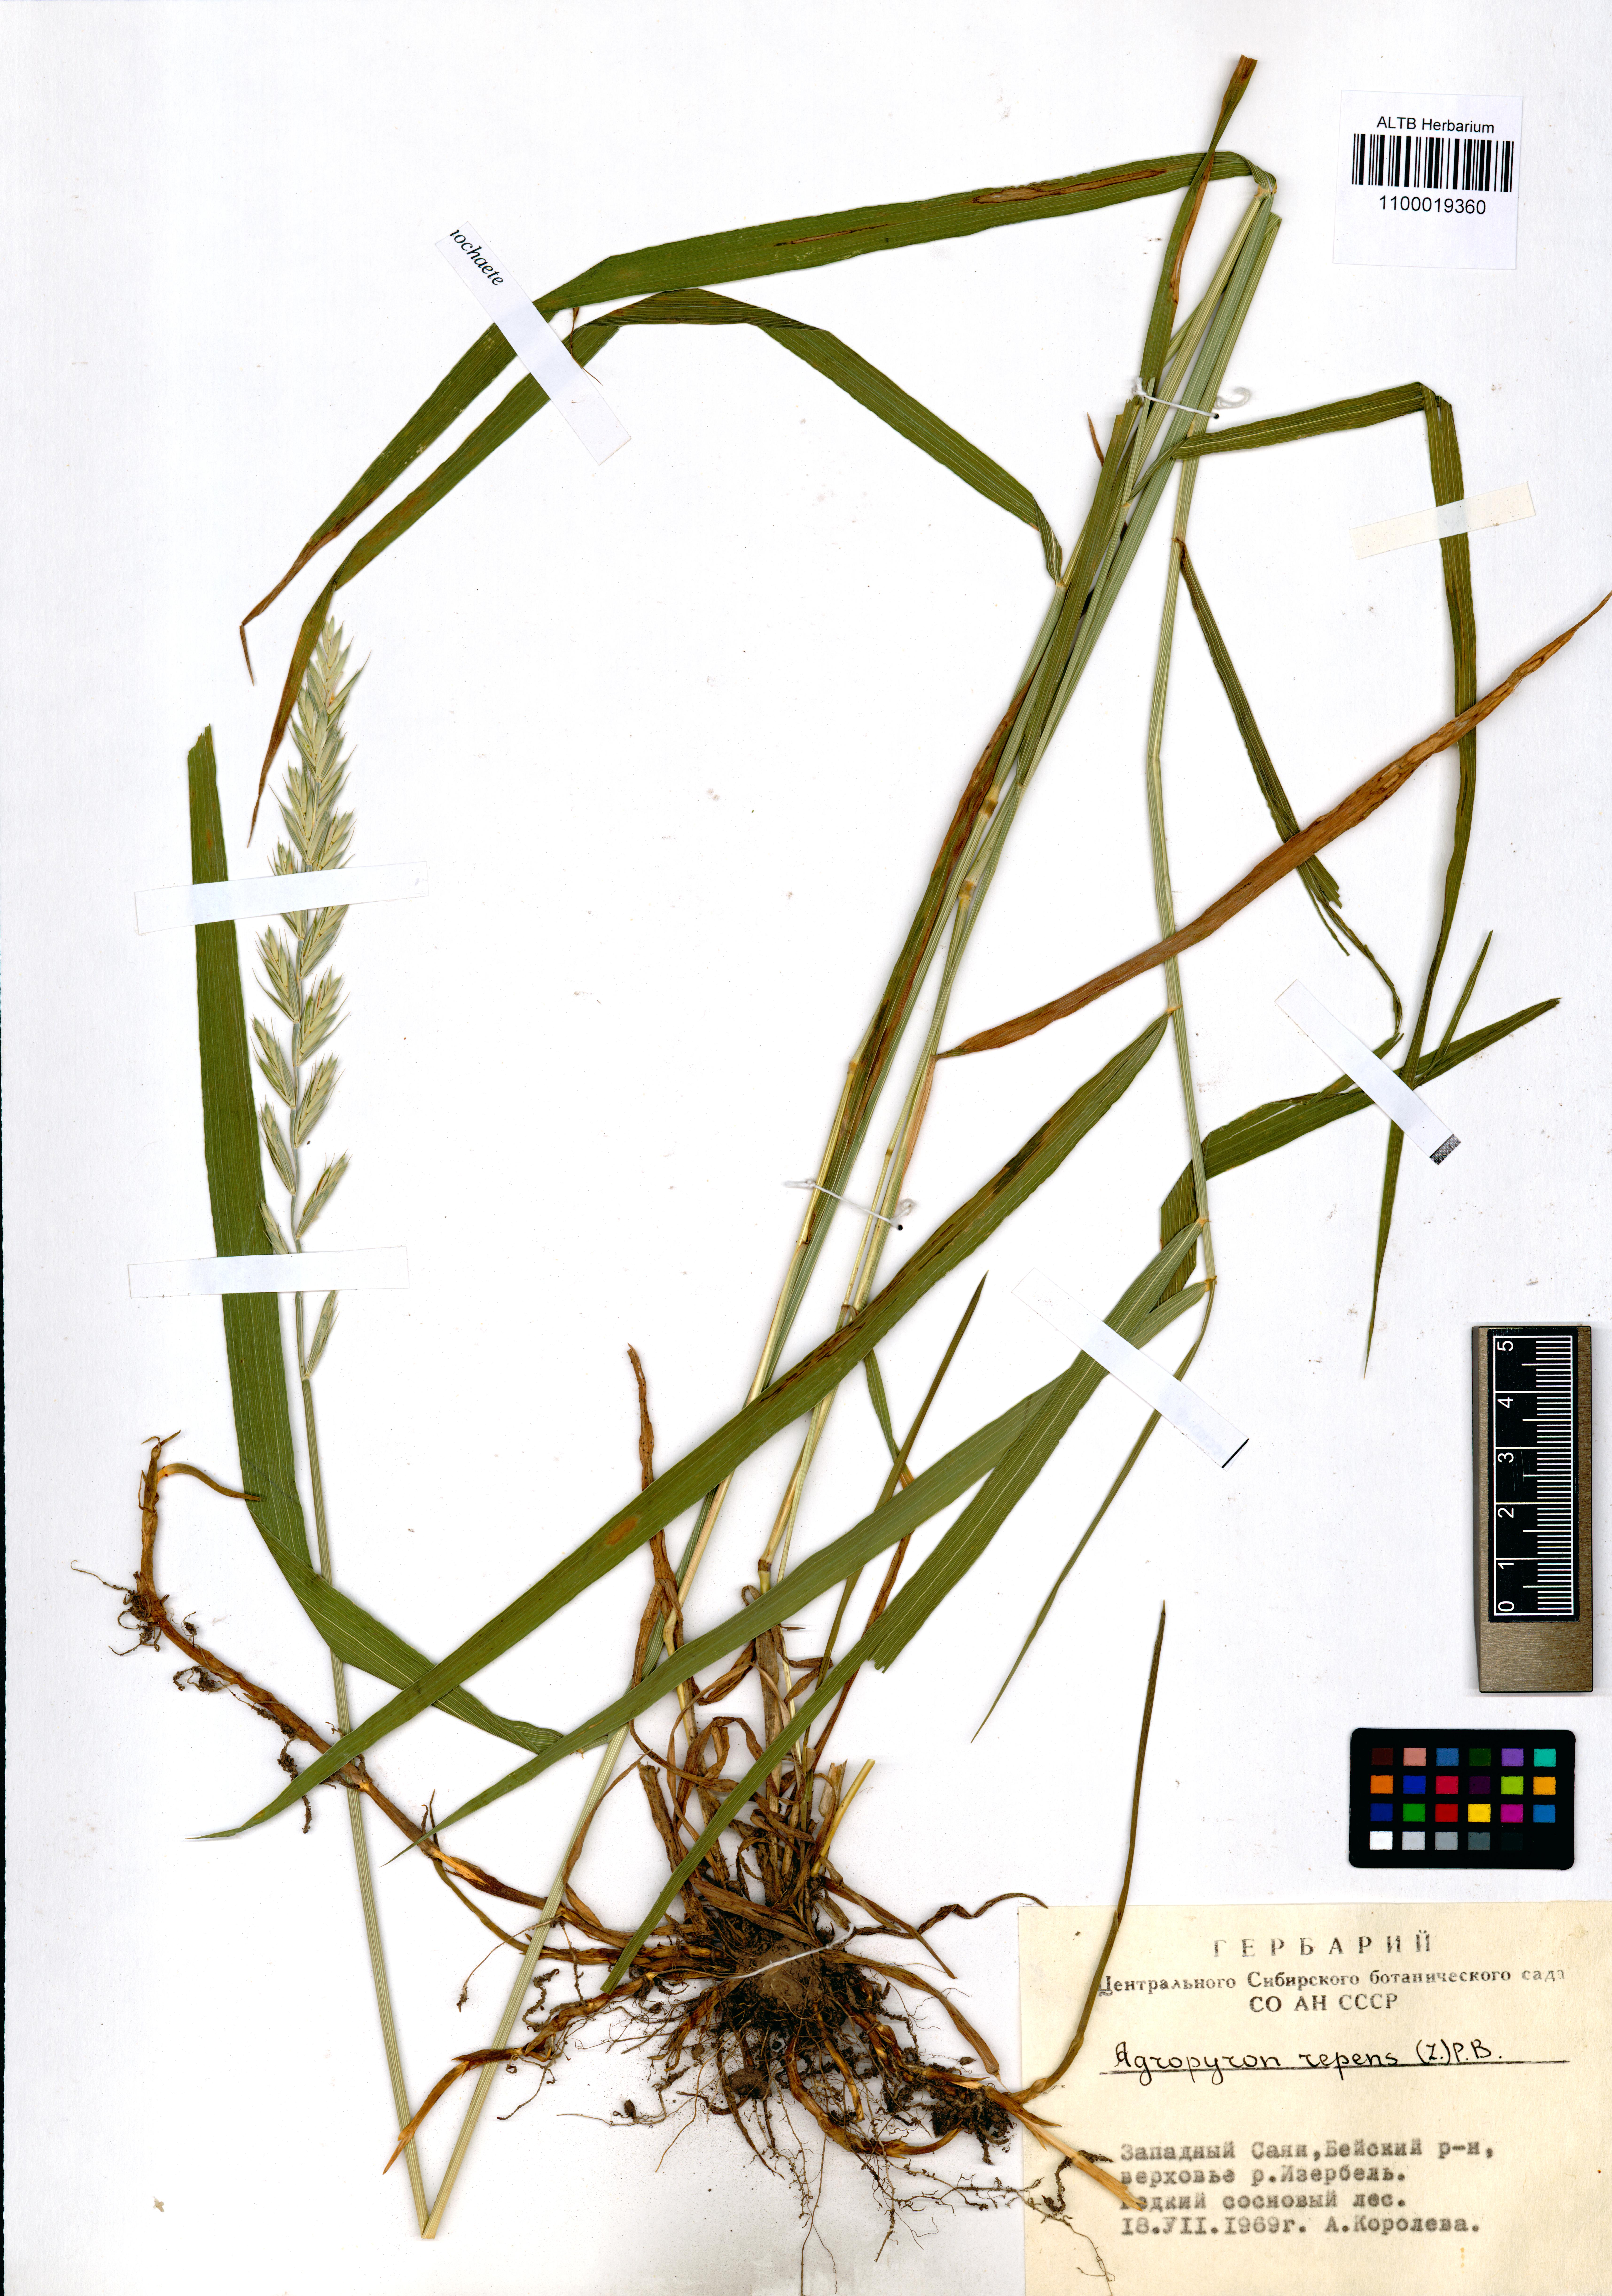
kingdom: Plantae
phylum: Tracheophyta
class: Liliopsida
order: Poales
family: Poaceae
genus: Elymus
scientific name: Elymus repens
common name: Quackgrass
